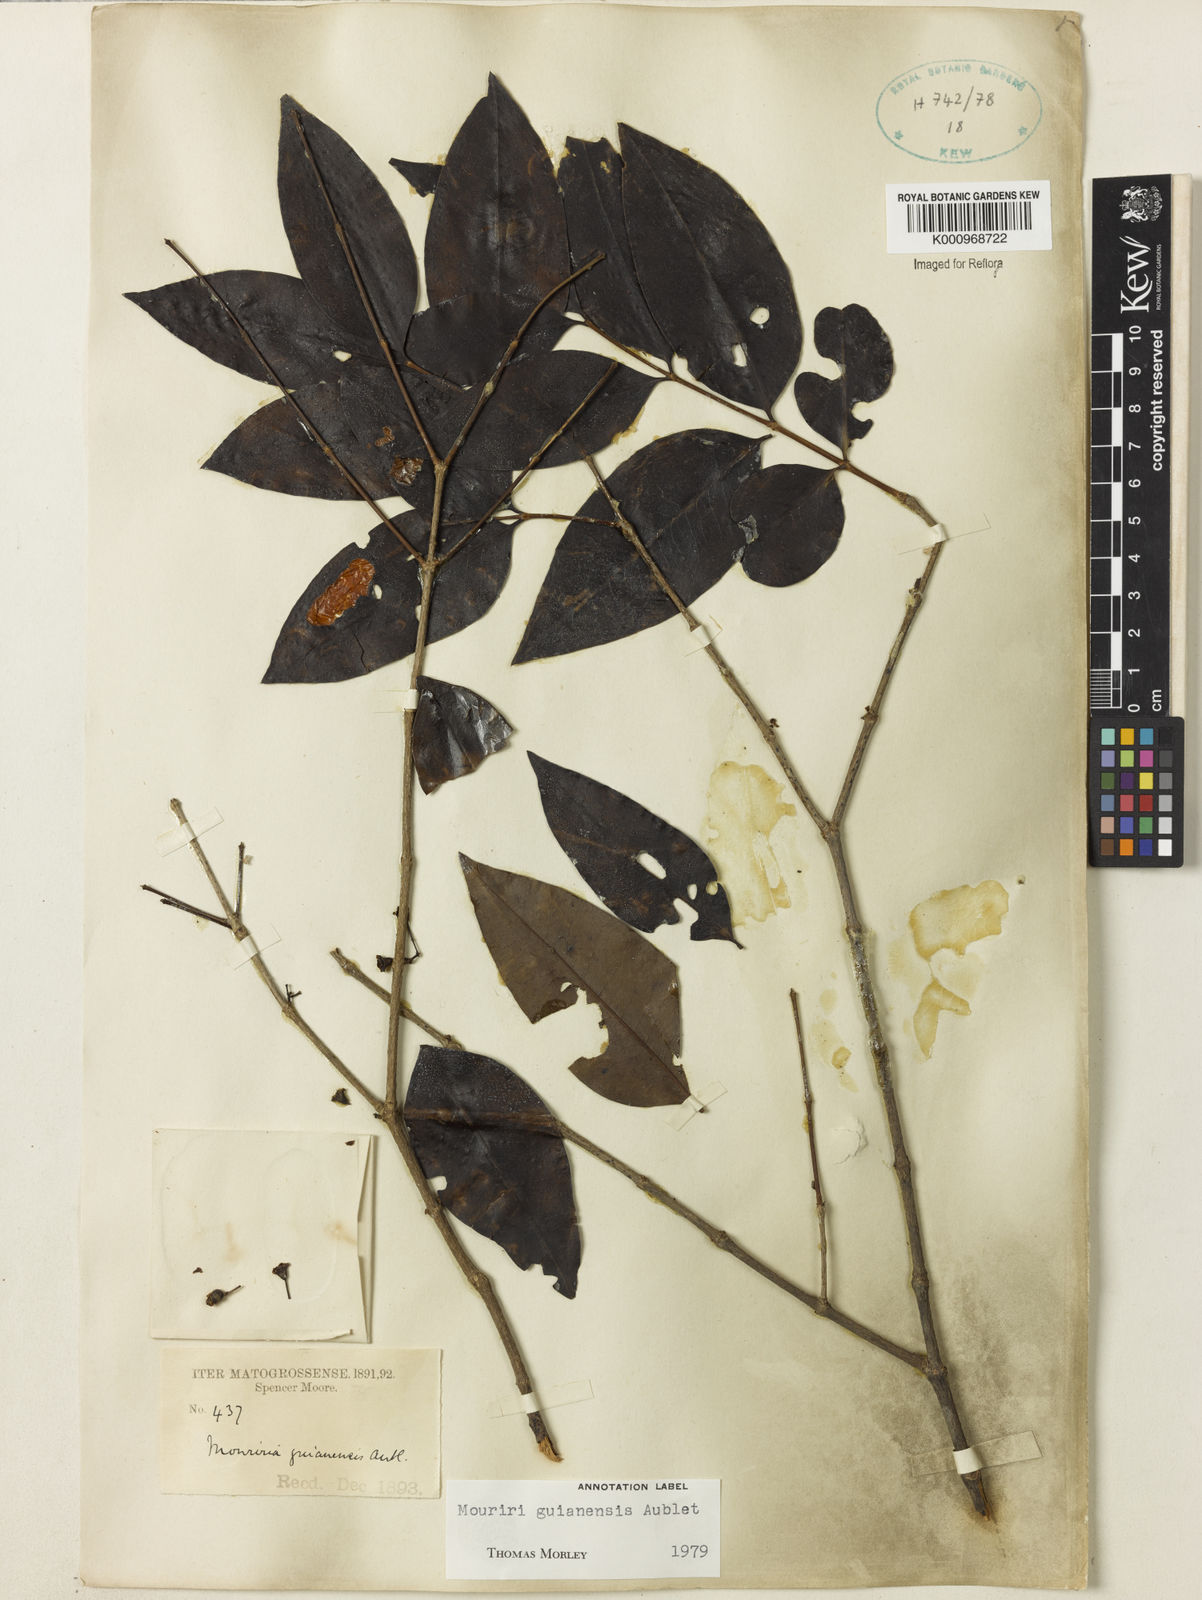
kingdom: Plantae
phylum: Tracheophyta
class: Magnoliopsida
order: Myrtales
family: Melastomataceae
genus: Mouriri
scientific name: Mouriri guianensis
